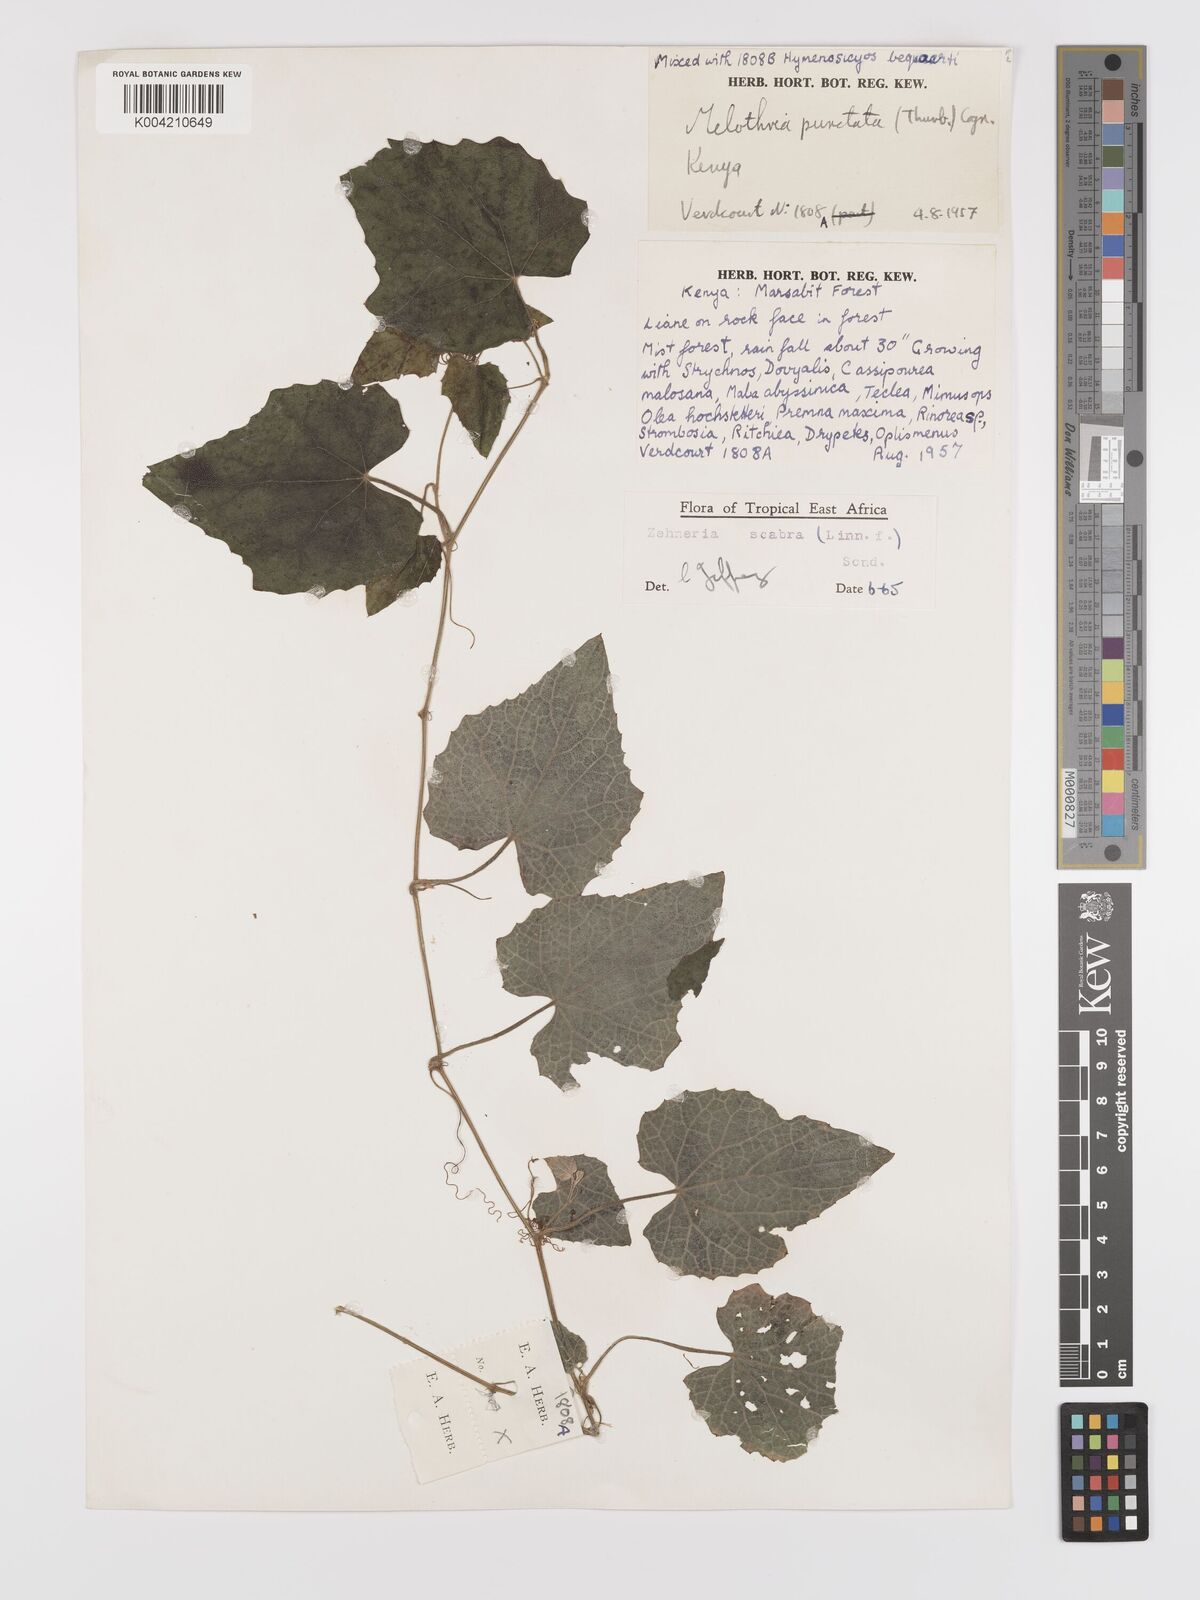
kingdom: Plantae
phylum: Tracheophyta
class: Magnoliopsida
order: Cucurbitales
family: Cucurbitaceae
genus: Zehneria
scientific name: Zehneria
